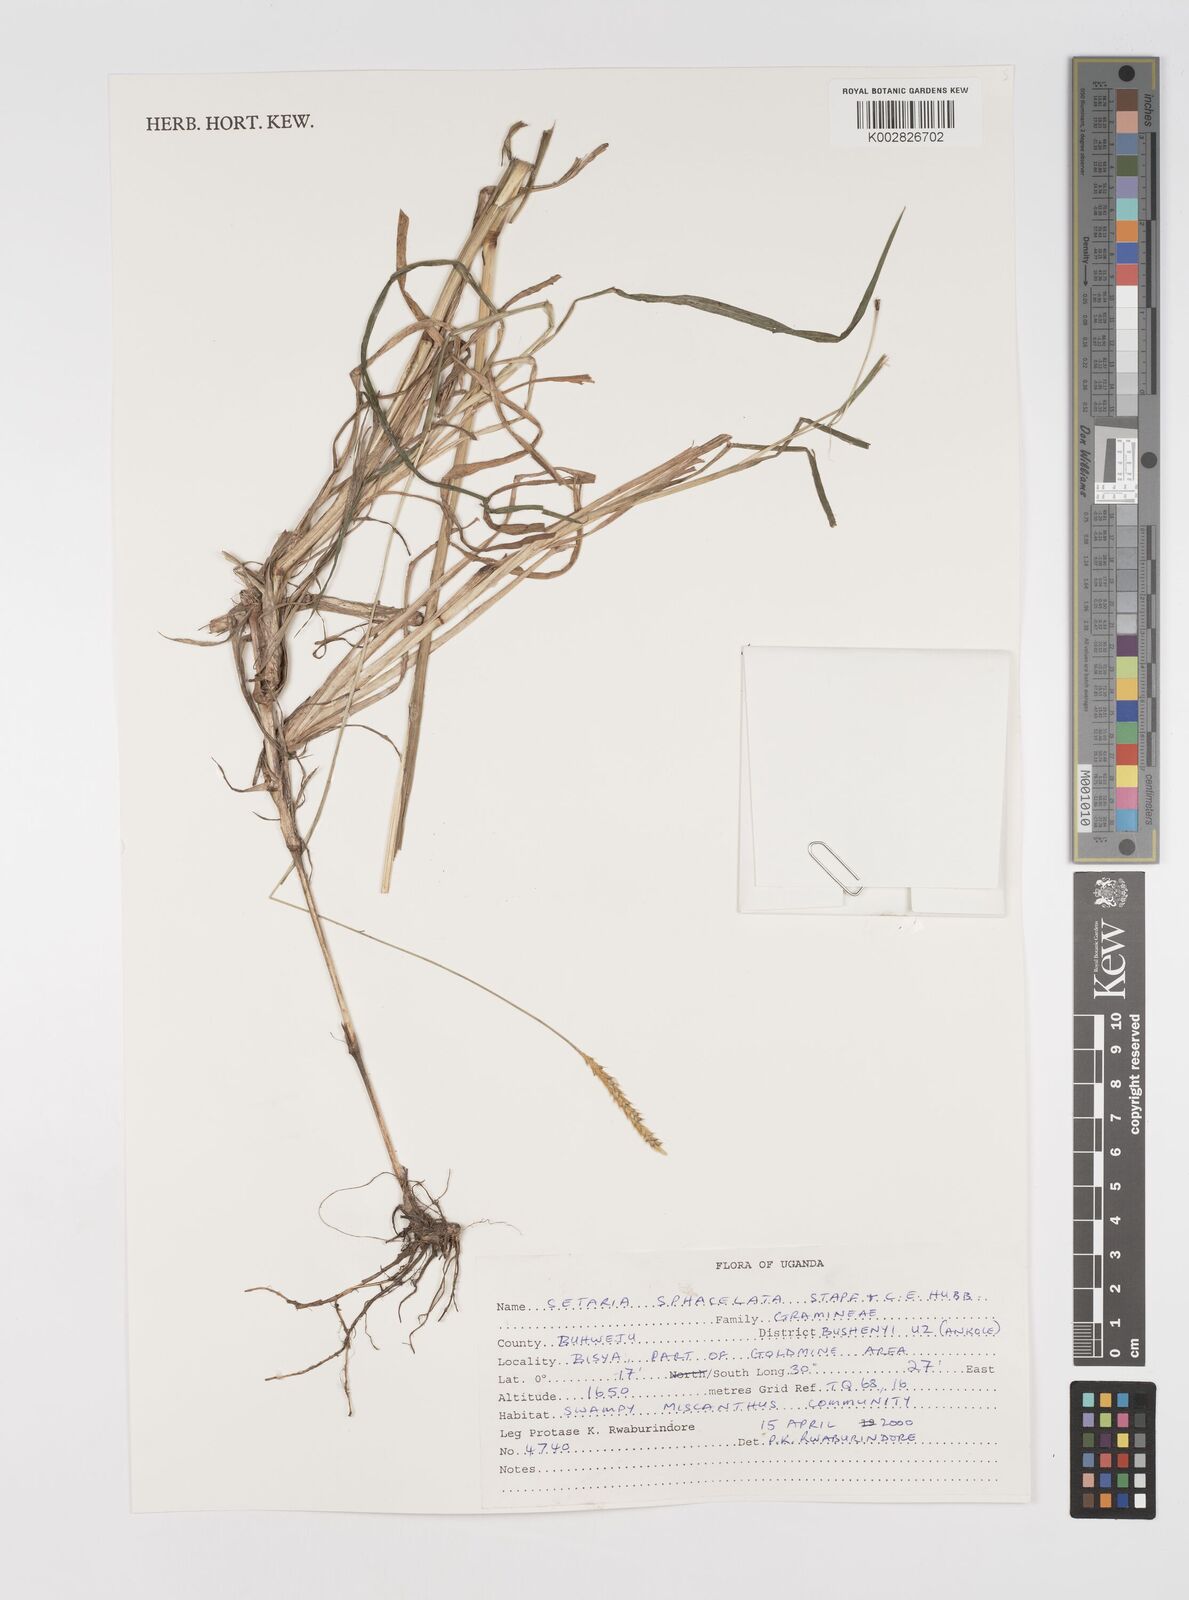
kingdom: Plantae
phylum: Tracheophyta
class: Liliopsida
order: Poales
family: Poaceae
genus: Setaria
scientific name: Setaria sphacelata
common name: African bristlegrass
